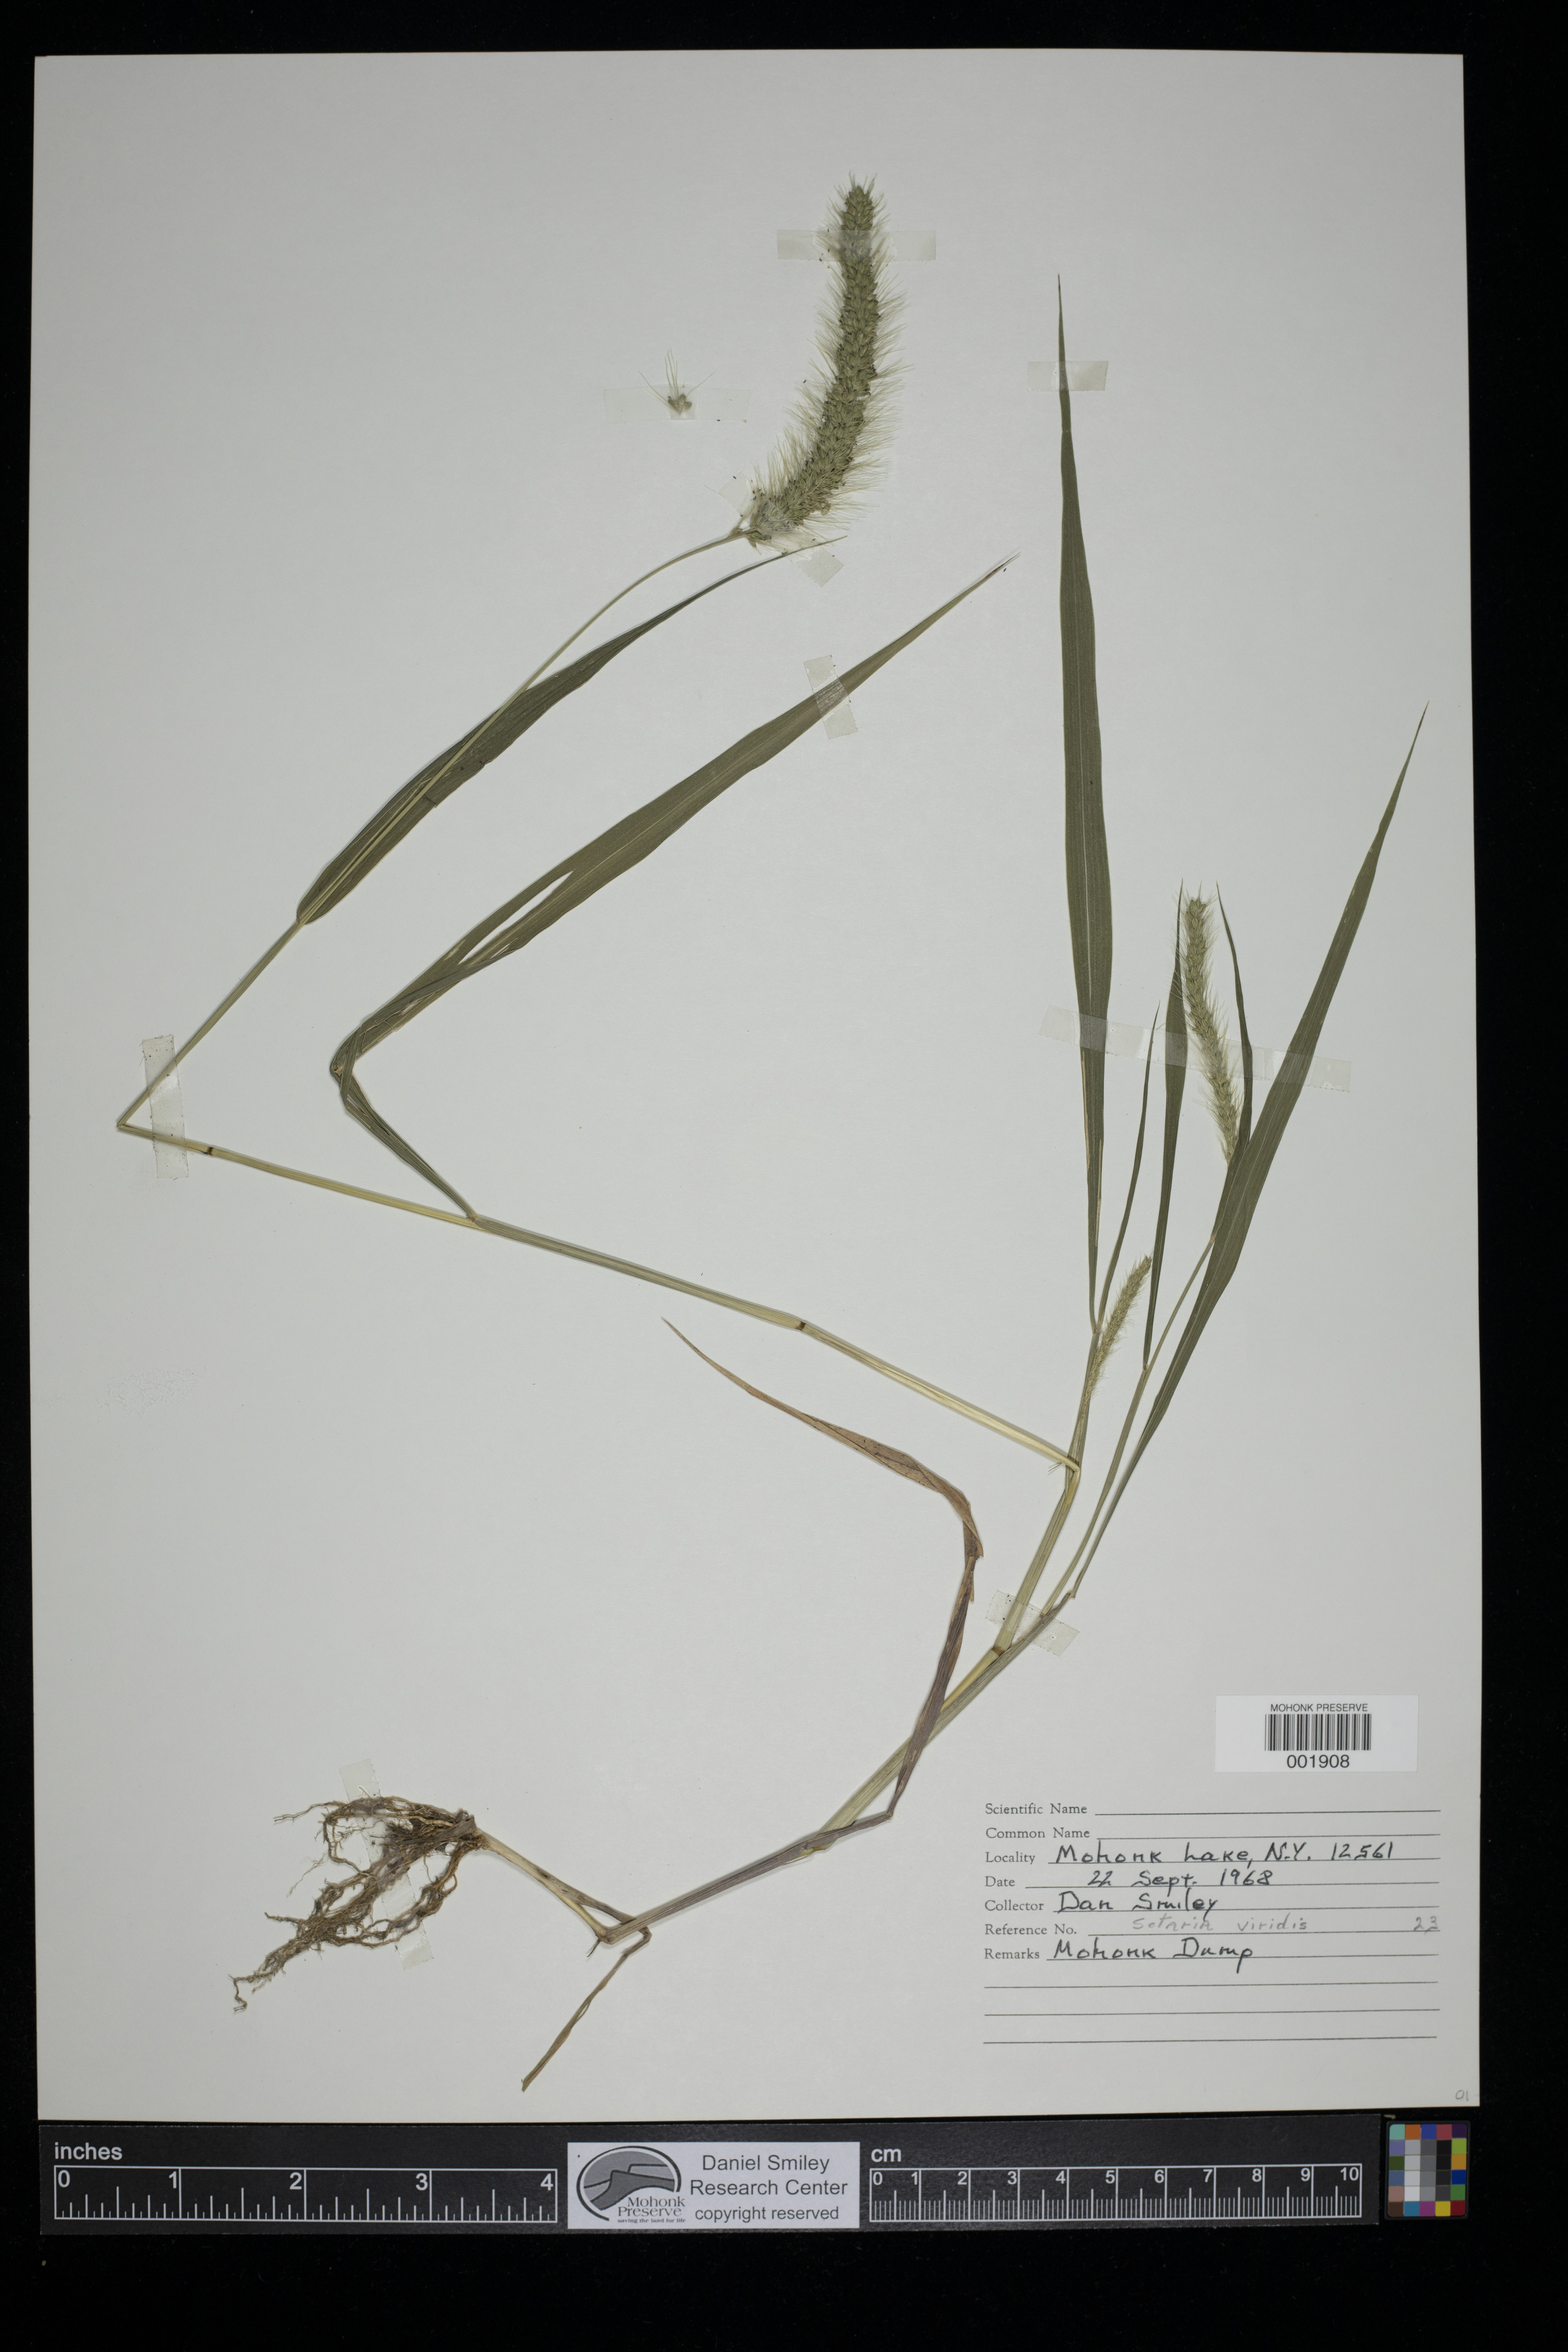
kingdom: Plantae
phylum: Tracheophyta
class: Liliopsida
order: Poales
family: Poaceae
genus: Setaria
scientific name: Setaria viridis
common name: Green bristlegrass
